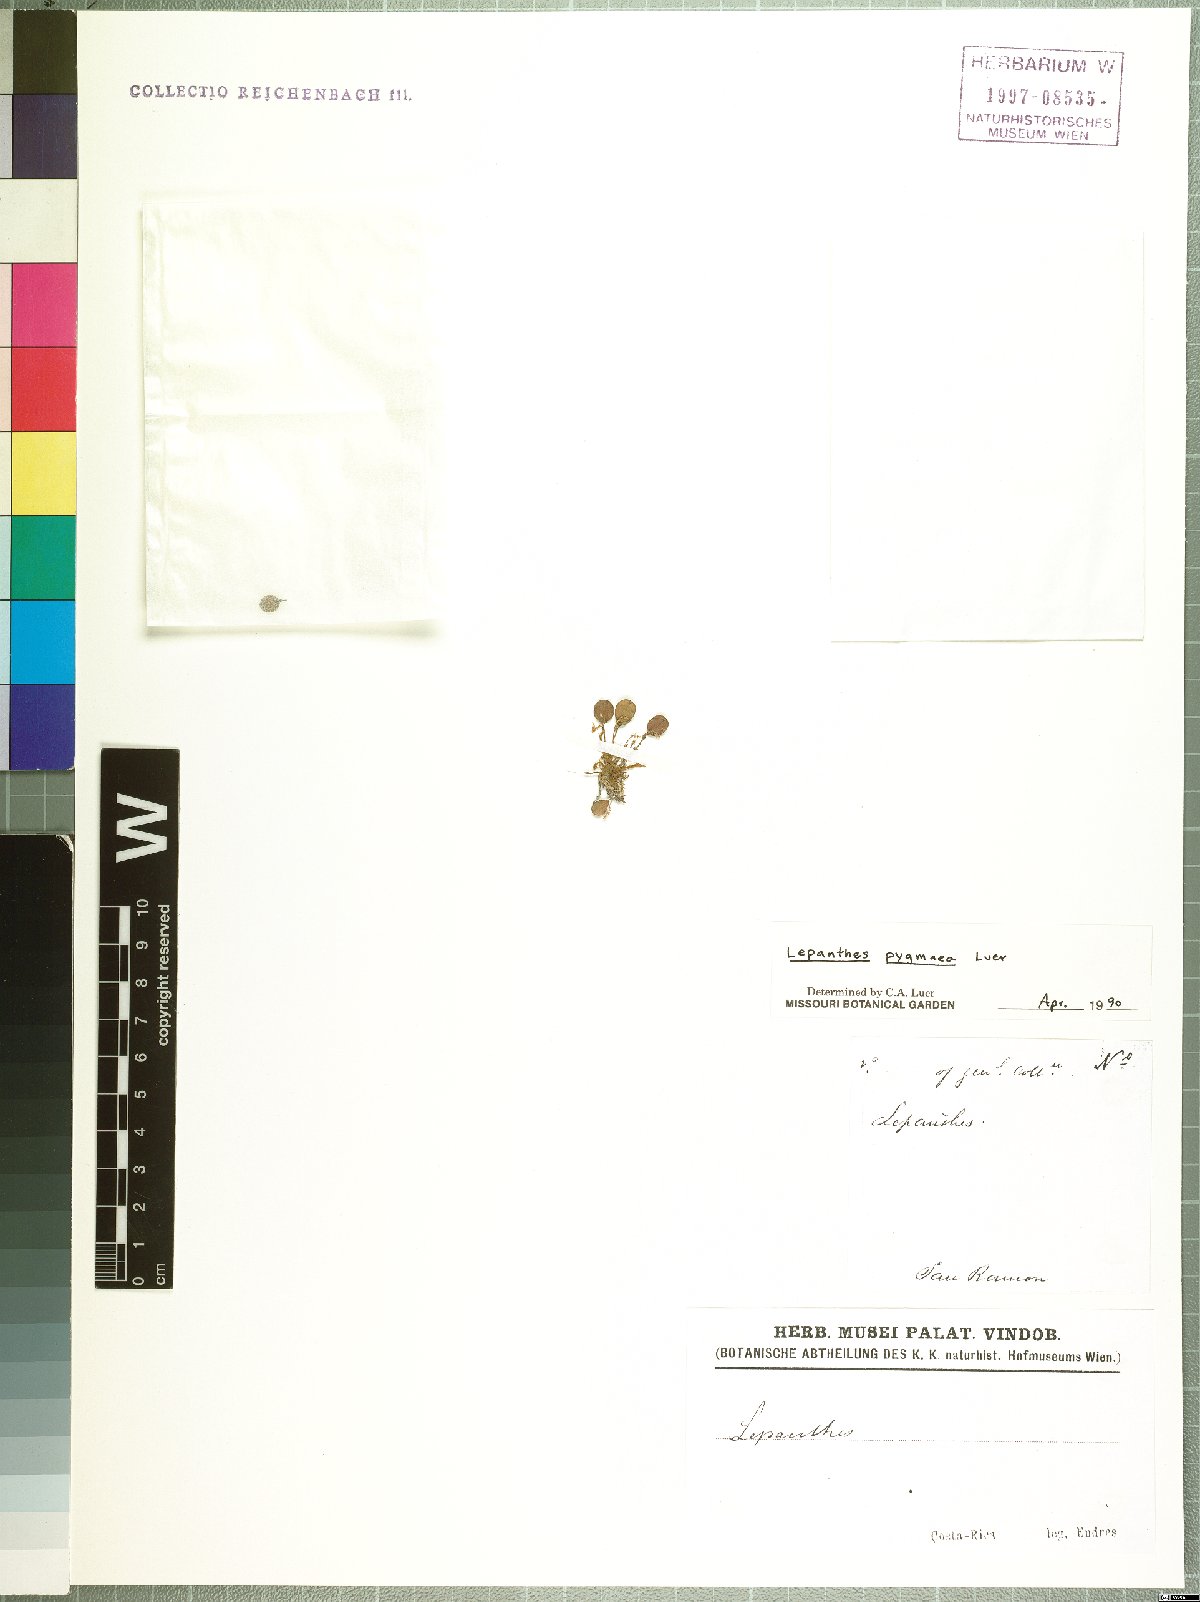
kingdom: Plantae
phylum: Tracheophyta
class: Liliopsida
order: Asparagales
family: Orchidaceae
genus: Lepanthes
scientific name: Lepanthes pygmaea
